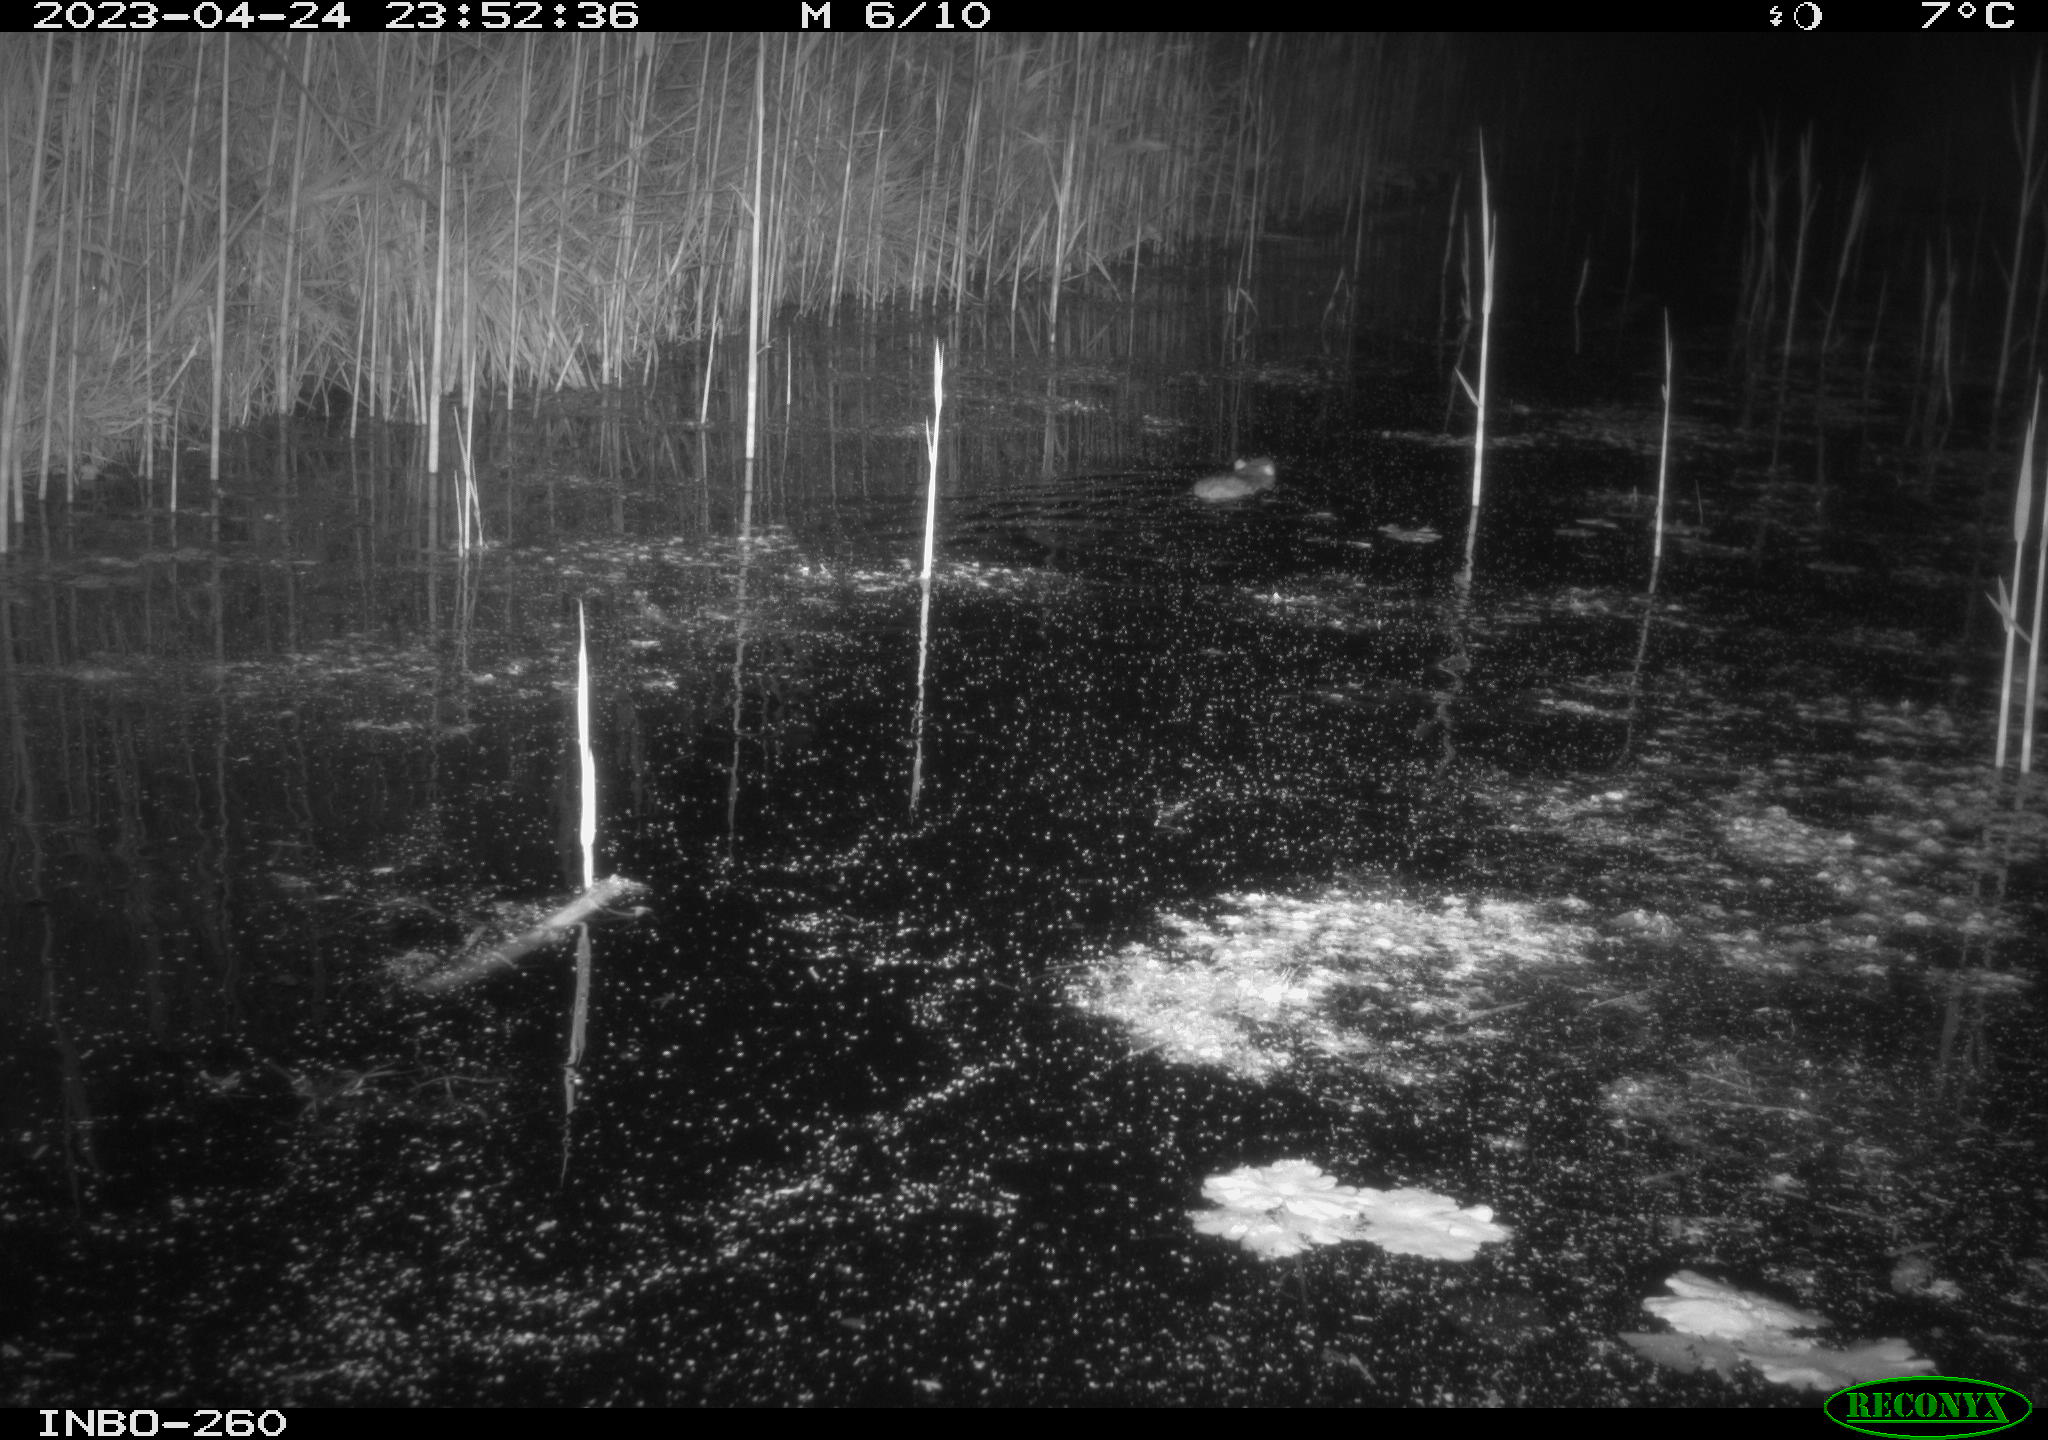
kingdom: Animalia
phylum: Chordata
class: Mammalia
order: Rodentia
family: Muridae
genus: Rattus
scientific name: Rattus norvegicus
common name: Brown rat
